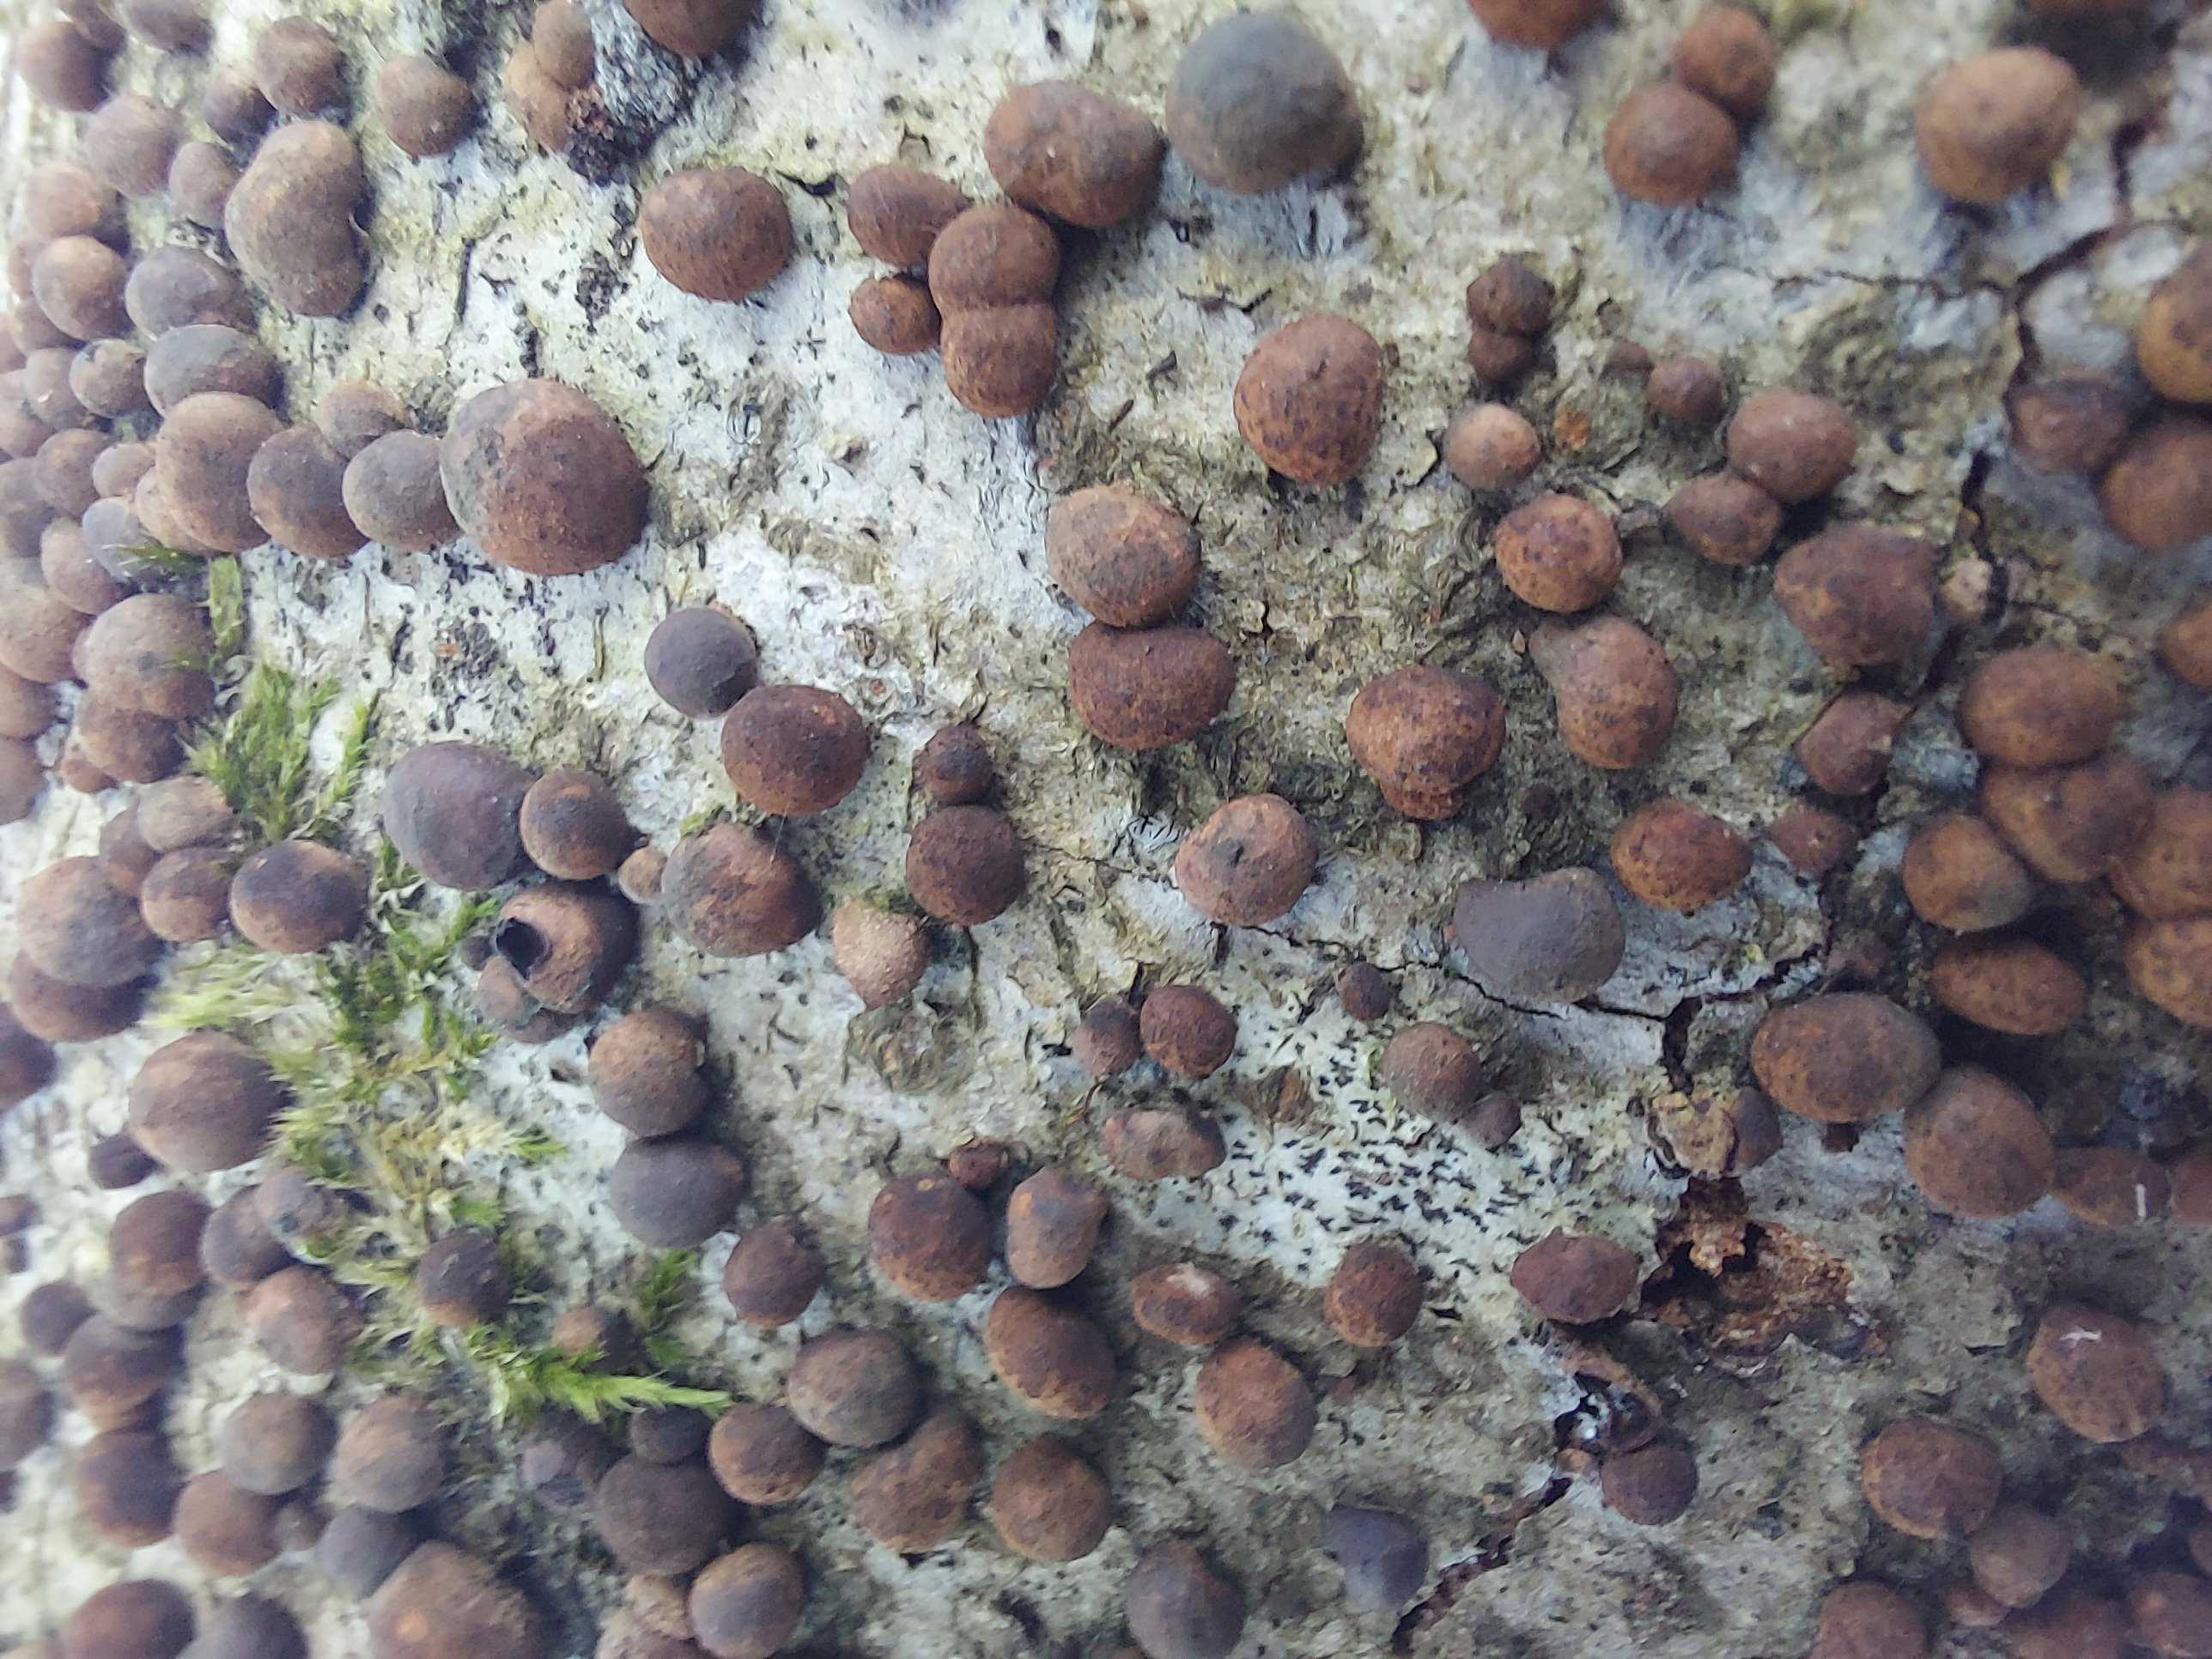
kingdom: Fungi
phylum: Ascomycota
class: Sordariomycetes
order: Xylariales
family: Hypoxylaceae
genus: Hypoxylon
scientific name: Hypoxylon fragiforme
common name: kuljordbær
